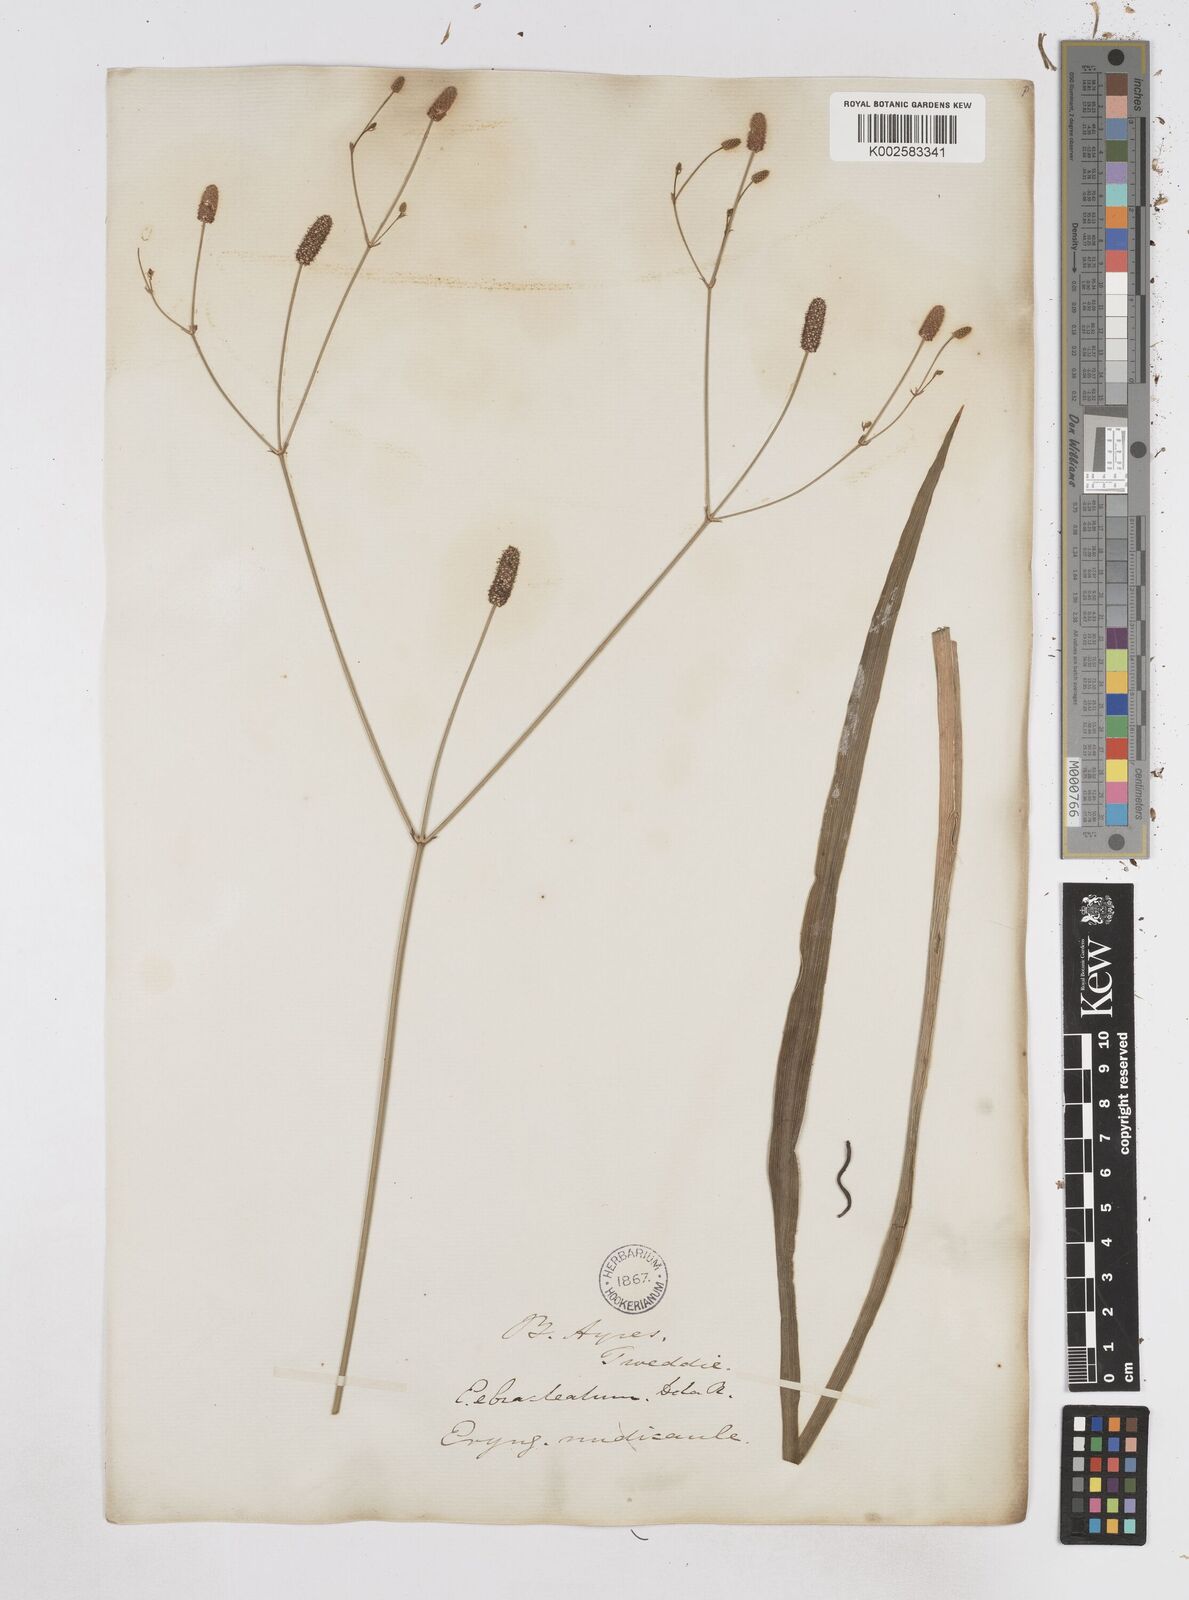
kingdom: Plantae
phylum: Tracheophyta
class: Magnoliopsida
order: Apiales
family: Apiaceae
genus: Eryngium
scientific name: Eryngium ebracteatum
